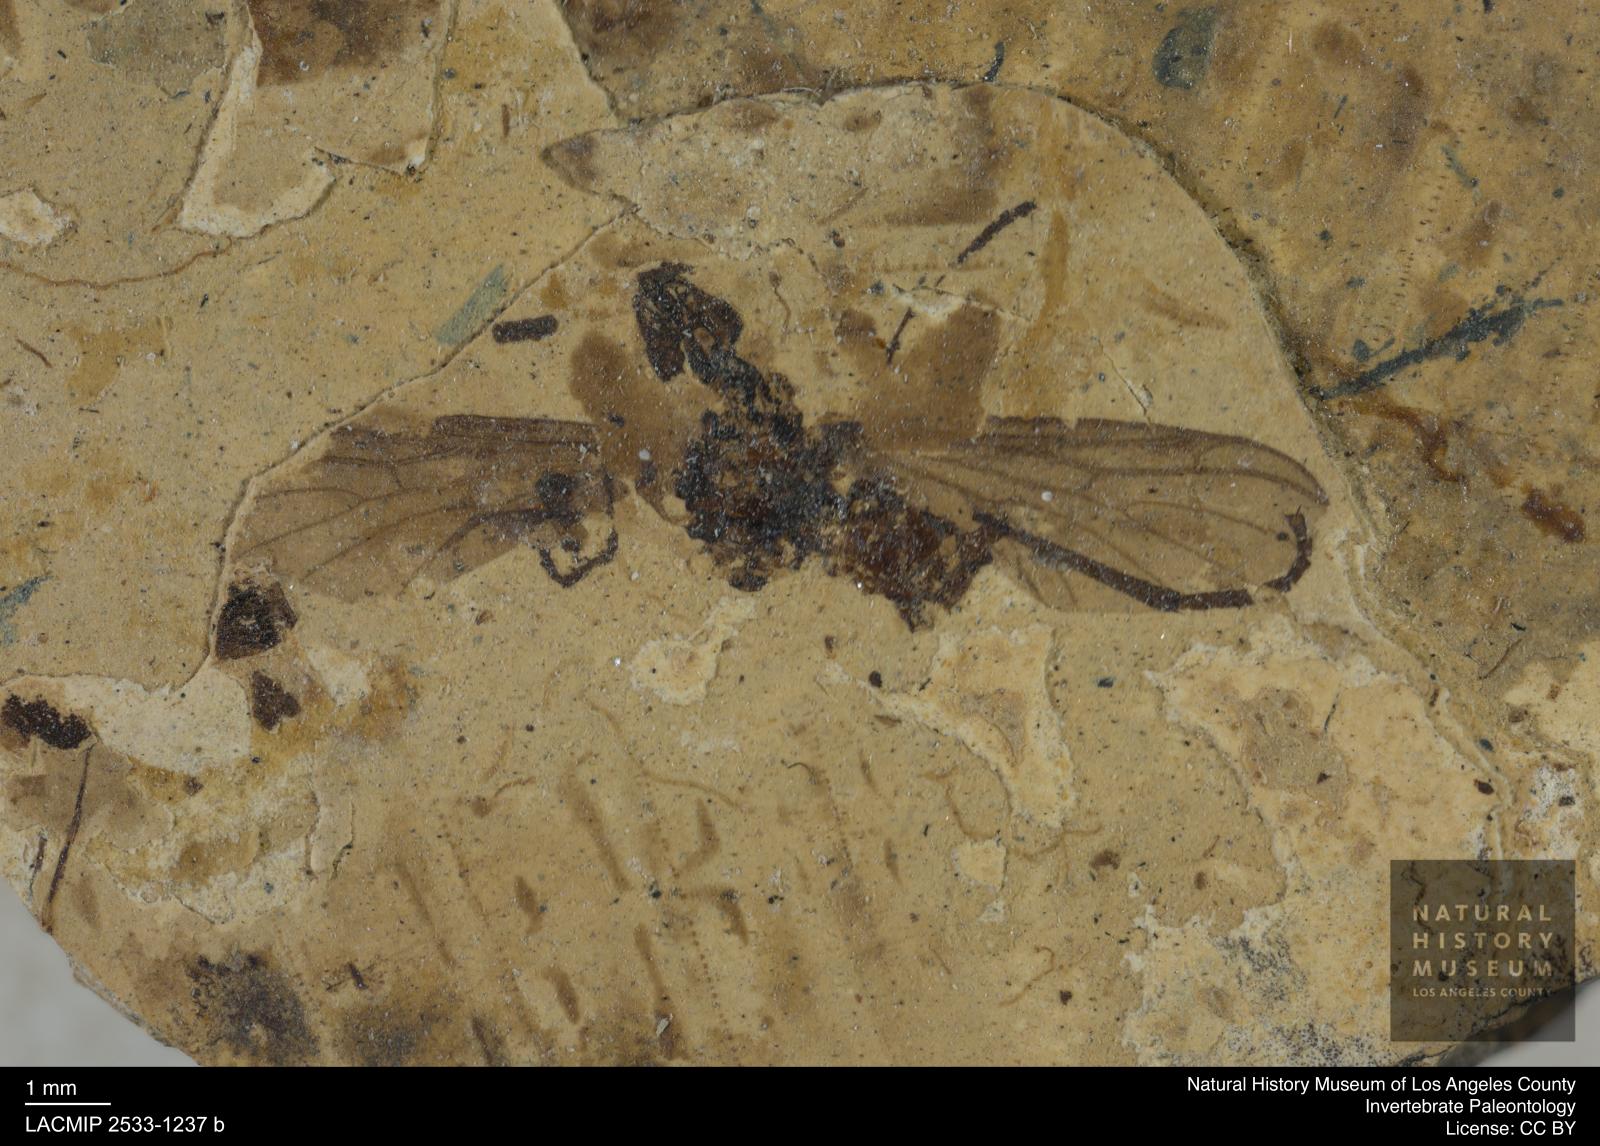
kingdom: Animalia
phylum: Arthropoda
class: Insecta
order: Diptera
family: Bibionidae
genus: Plecia
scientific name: Plecia
